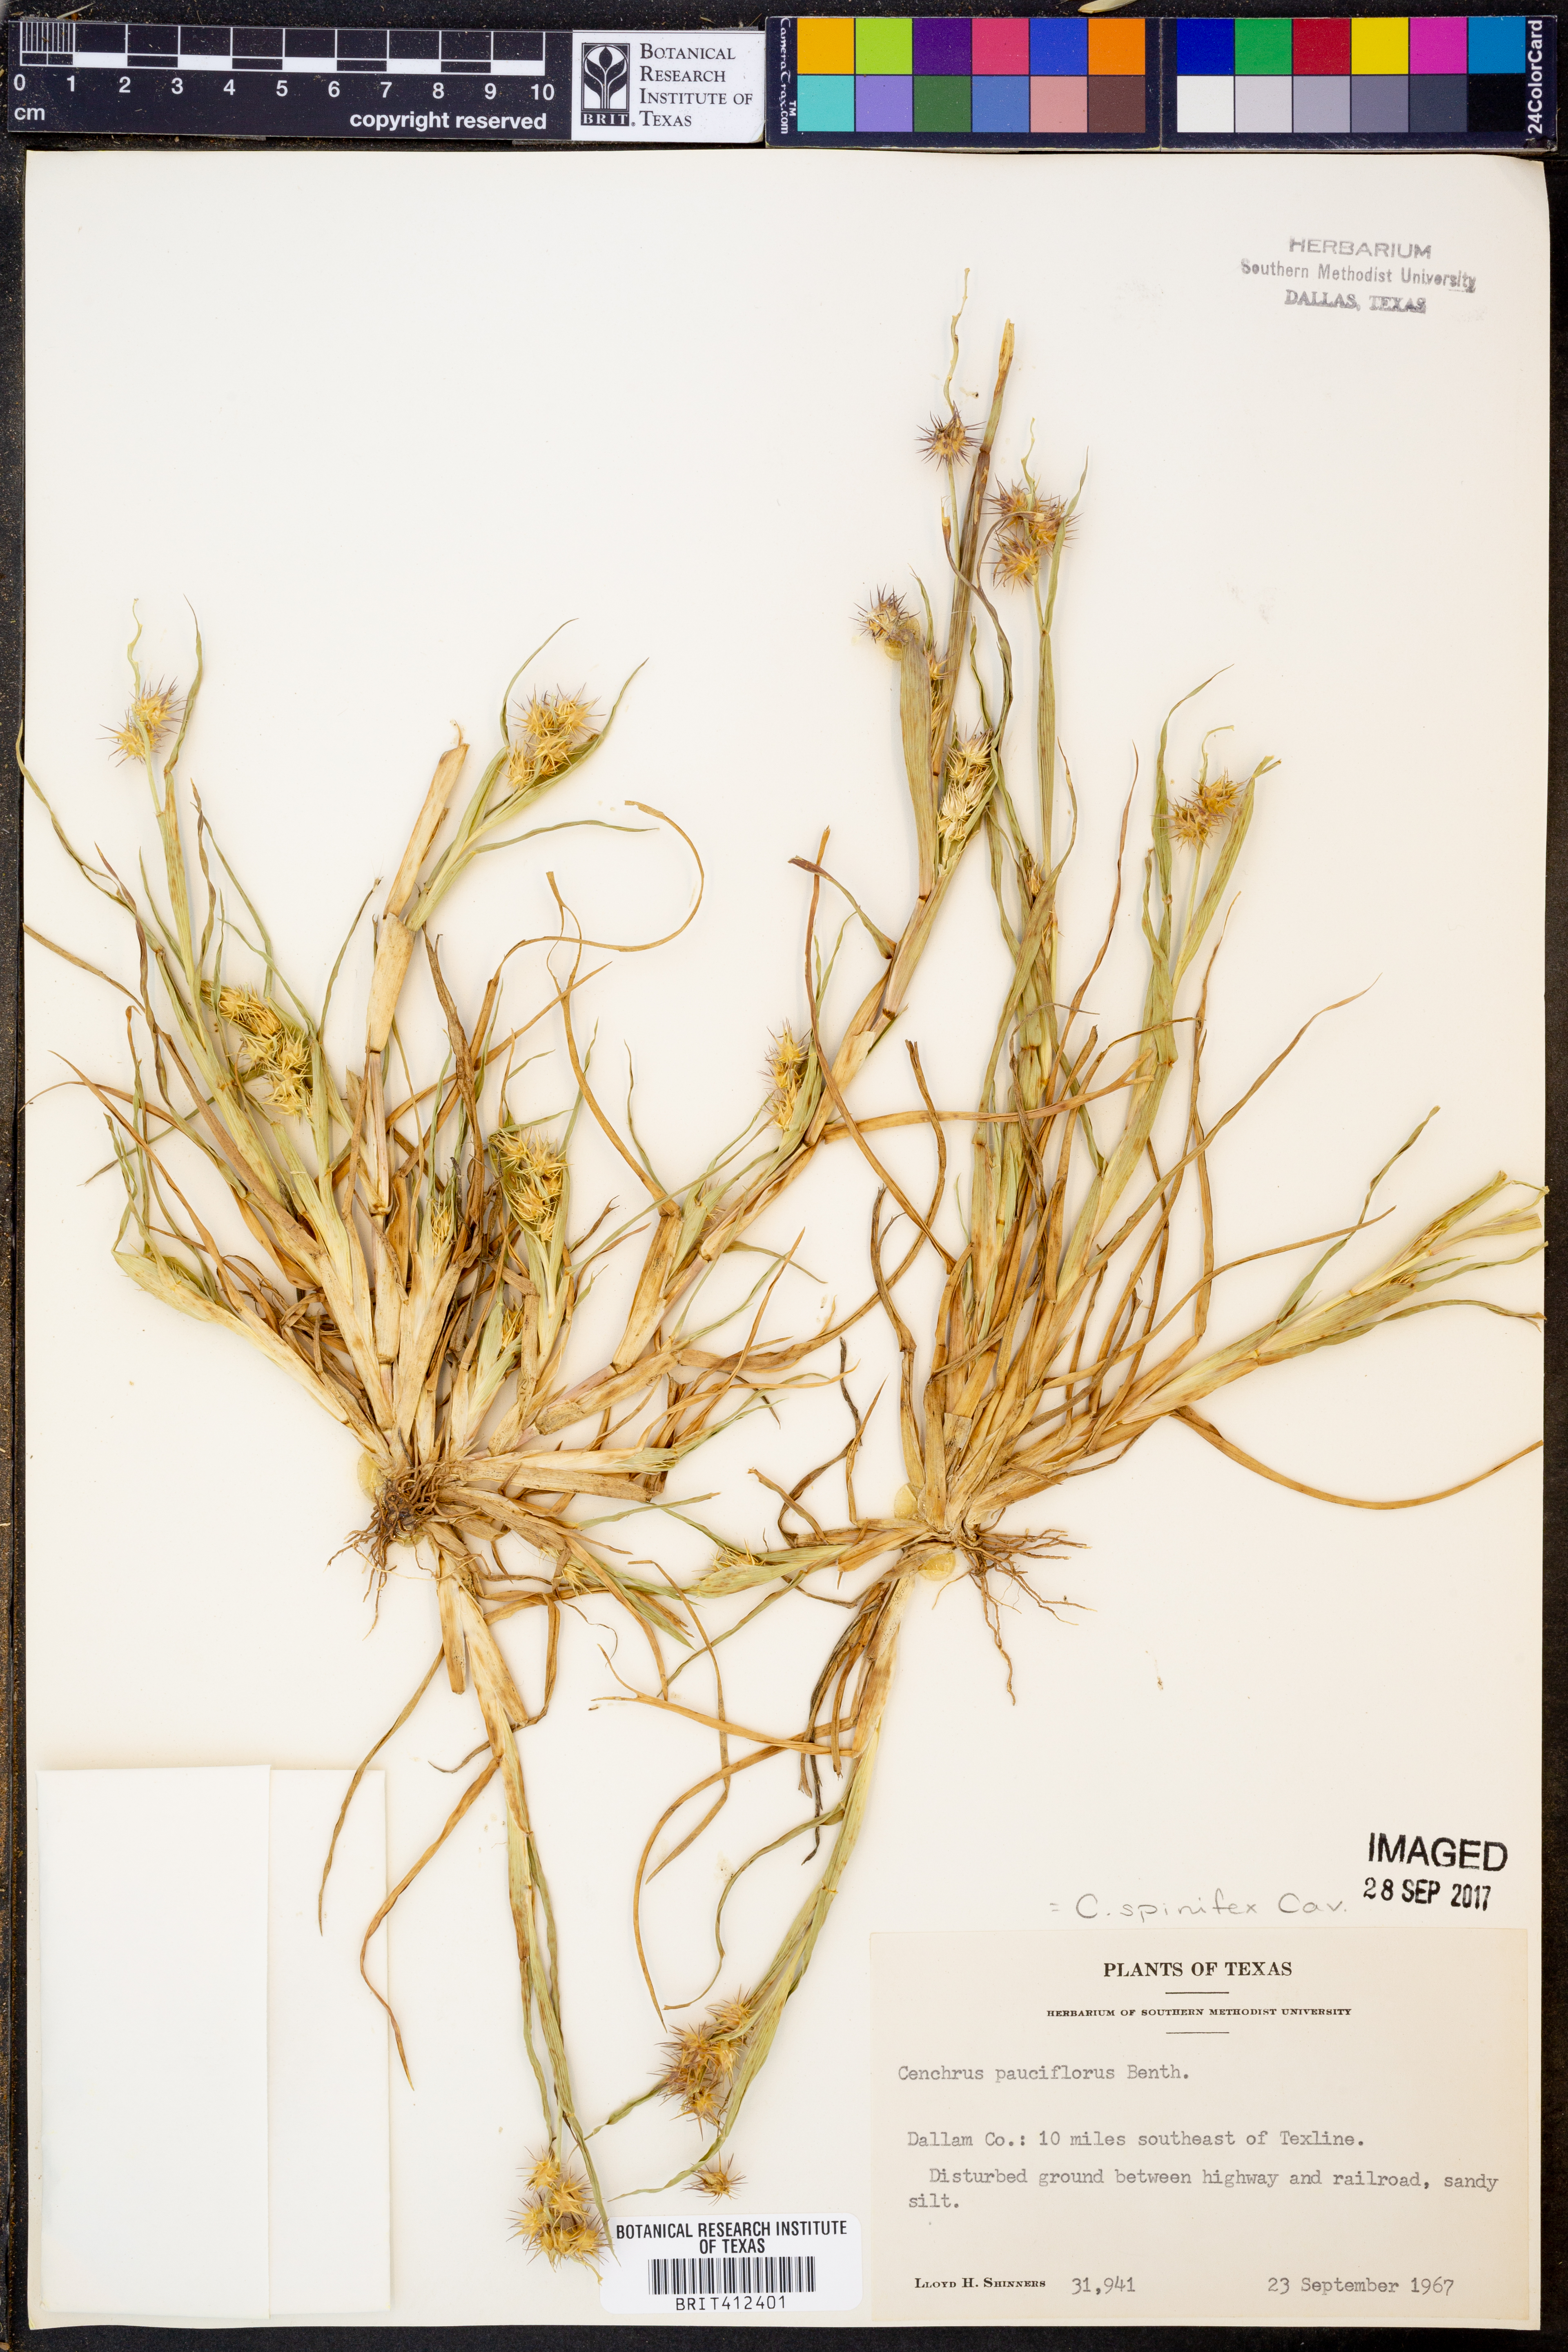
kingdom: Plantae
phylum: Tracheophyta
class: Liliopsida
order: Poales
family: Poaceae
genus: Cenchrus
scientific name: Cenchrus spinifex
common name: Coast sandbur
